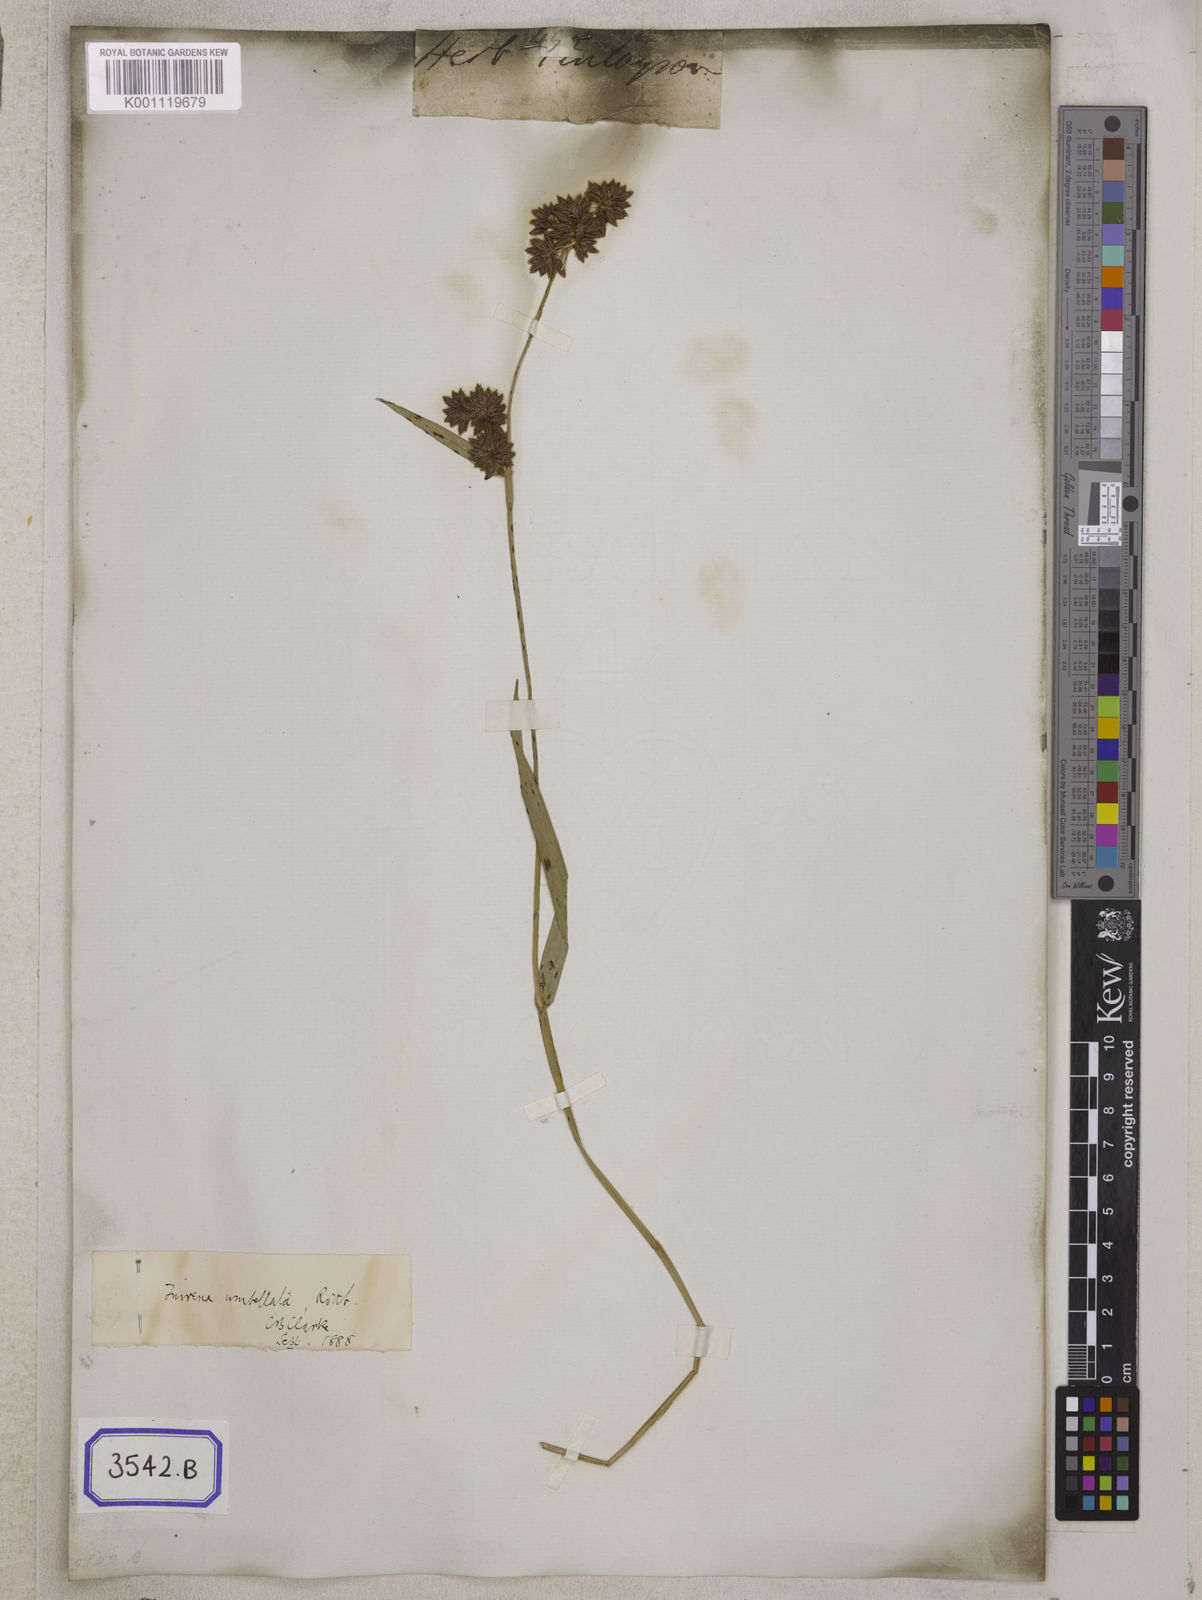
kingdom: Plantae
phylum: Tracheophyta
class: Liliopsida
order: Poales
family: Cyperaceae
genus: Fuirena
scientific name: Fuirena
